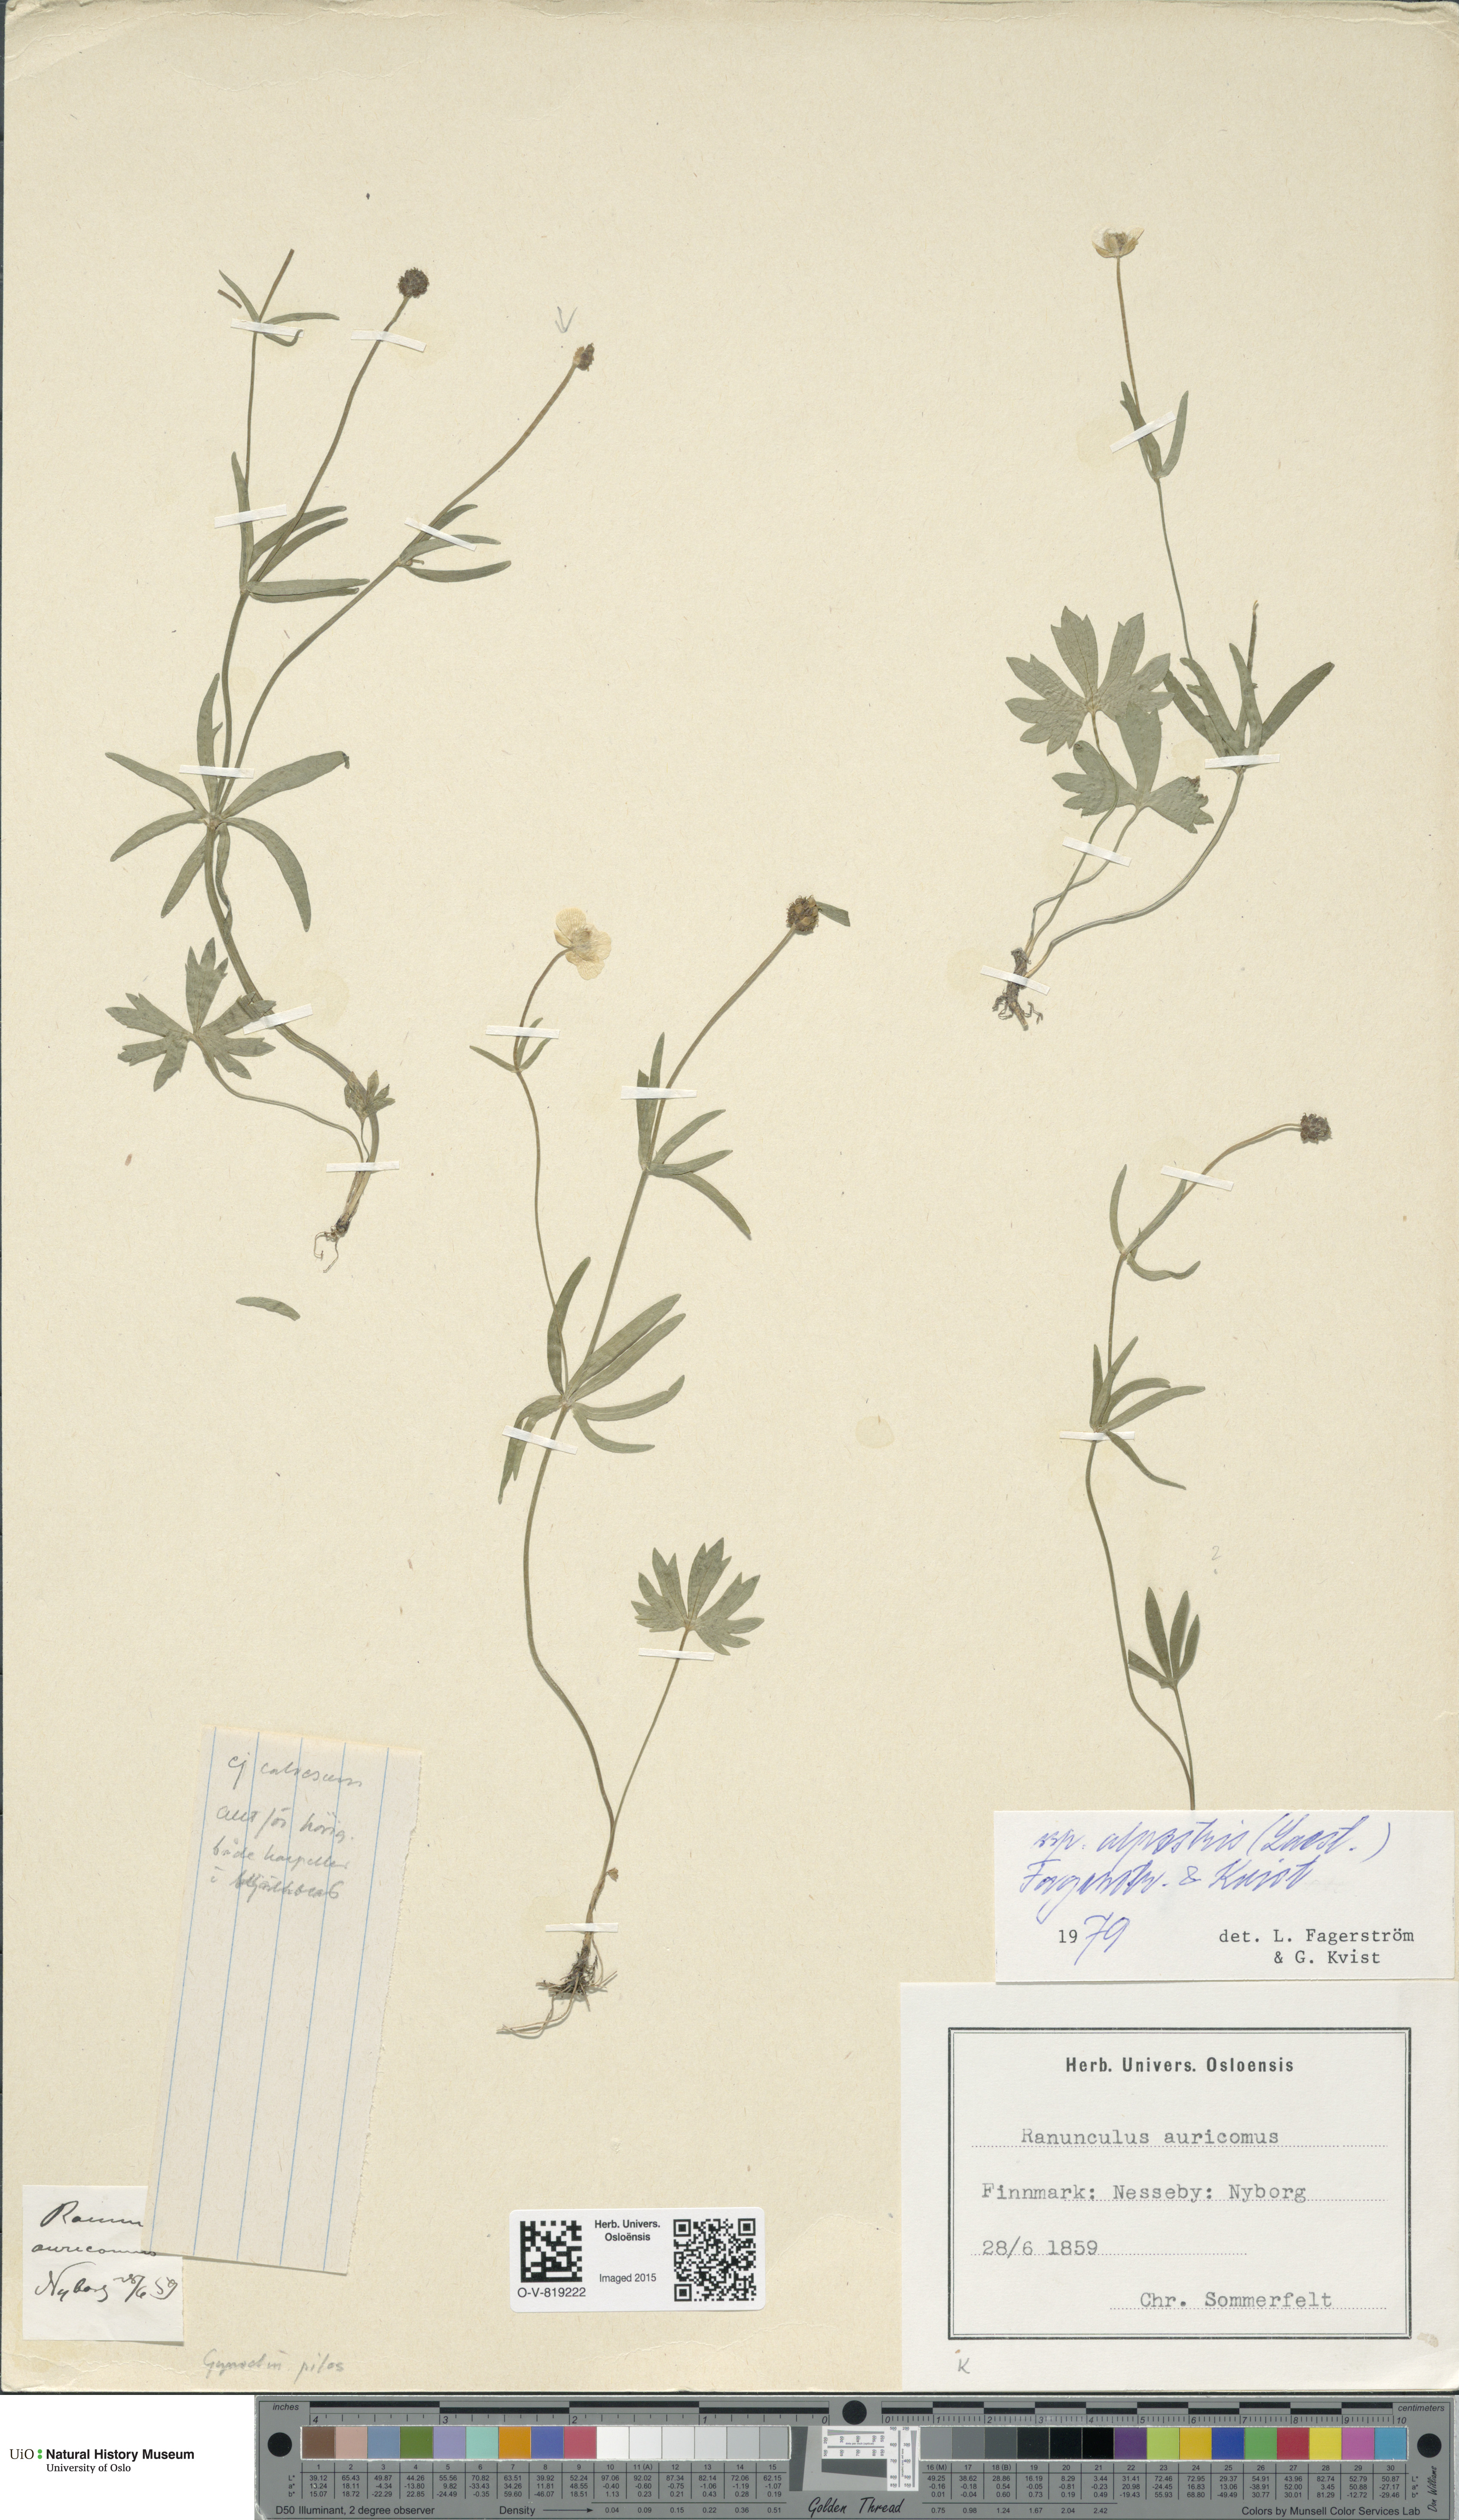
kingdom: Plantae
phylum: Tracheophyta
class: Magnoliopsida
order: Ranunculales
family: Ranunculaceae
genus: Ranunculus
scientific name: Ranunculus laestadii
